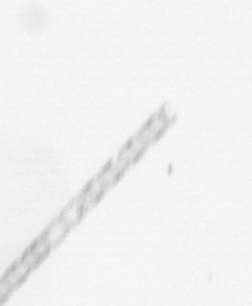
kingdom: Chromista
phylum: Ochrophyta
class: Bacillariophyceae
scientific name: Bacillariophyceae
